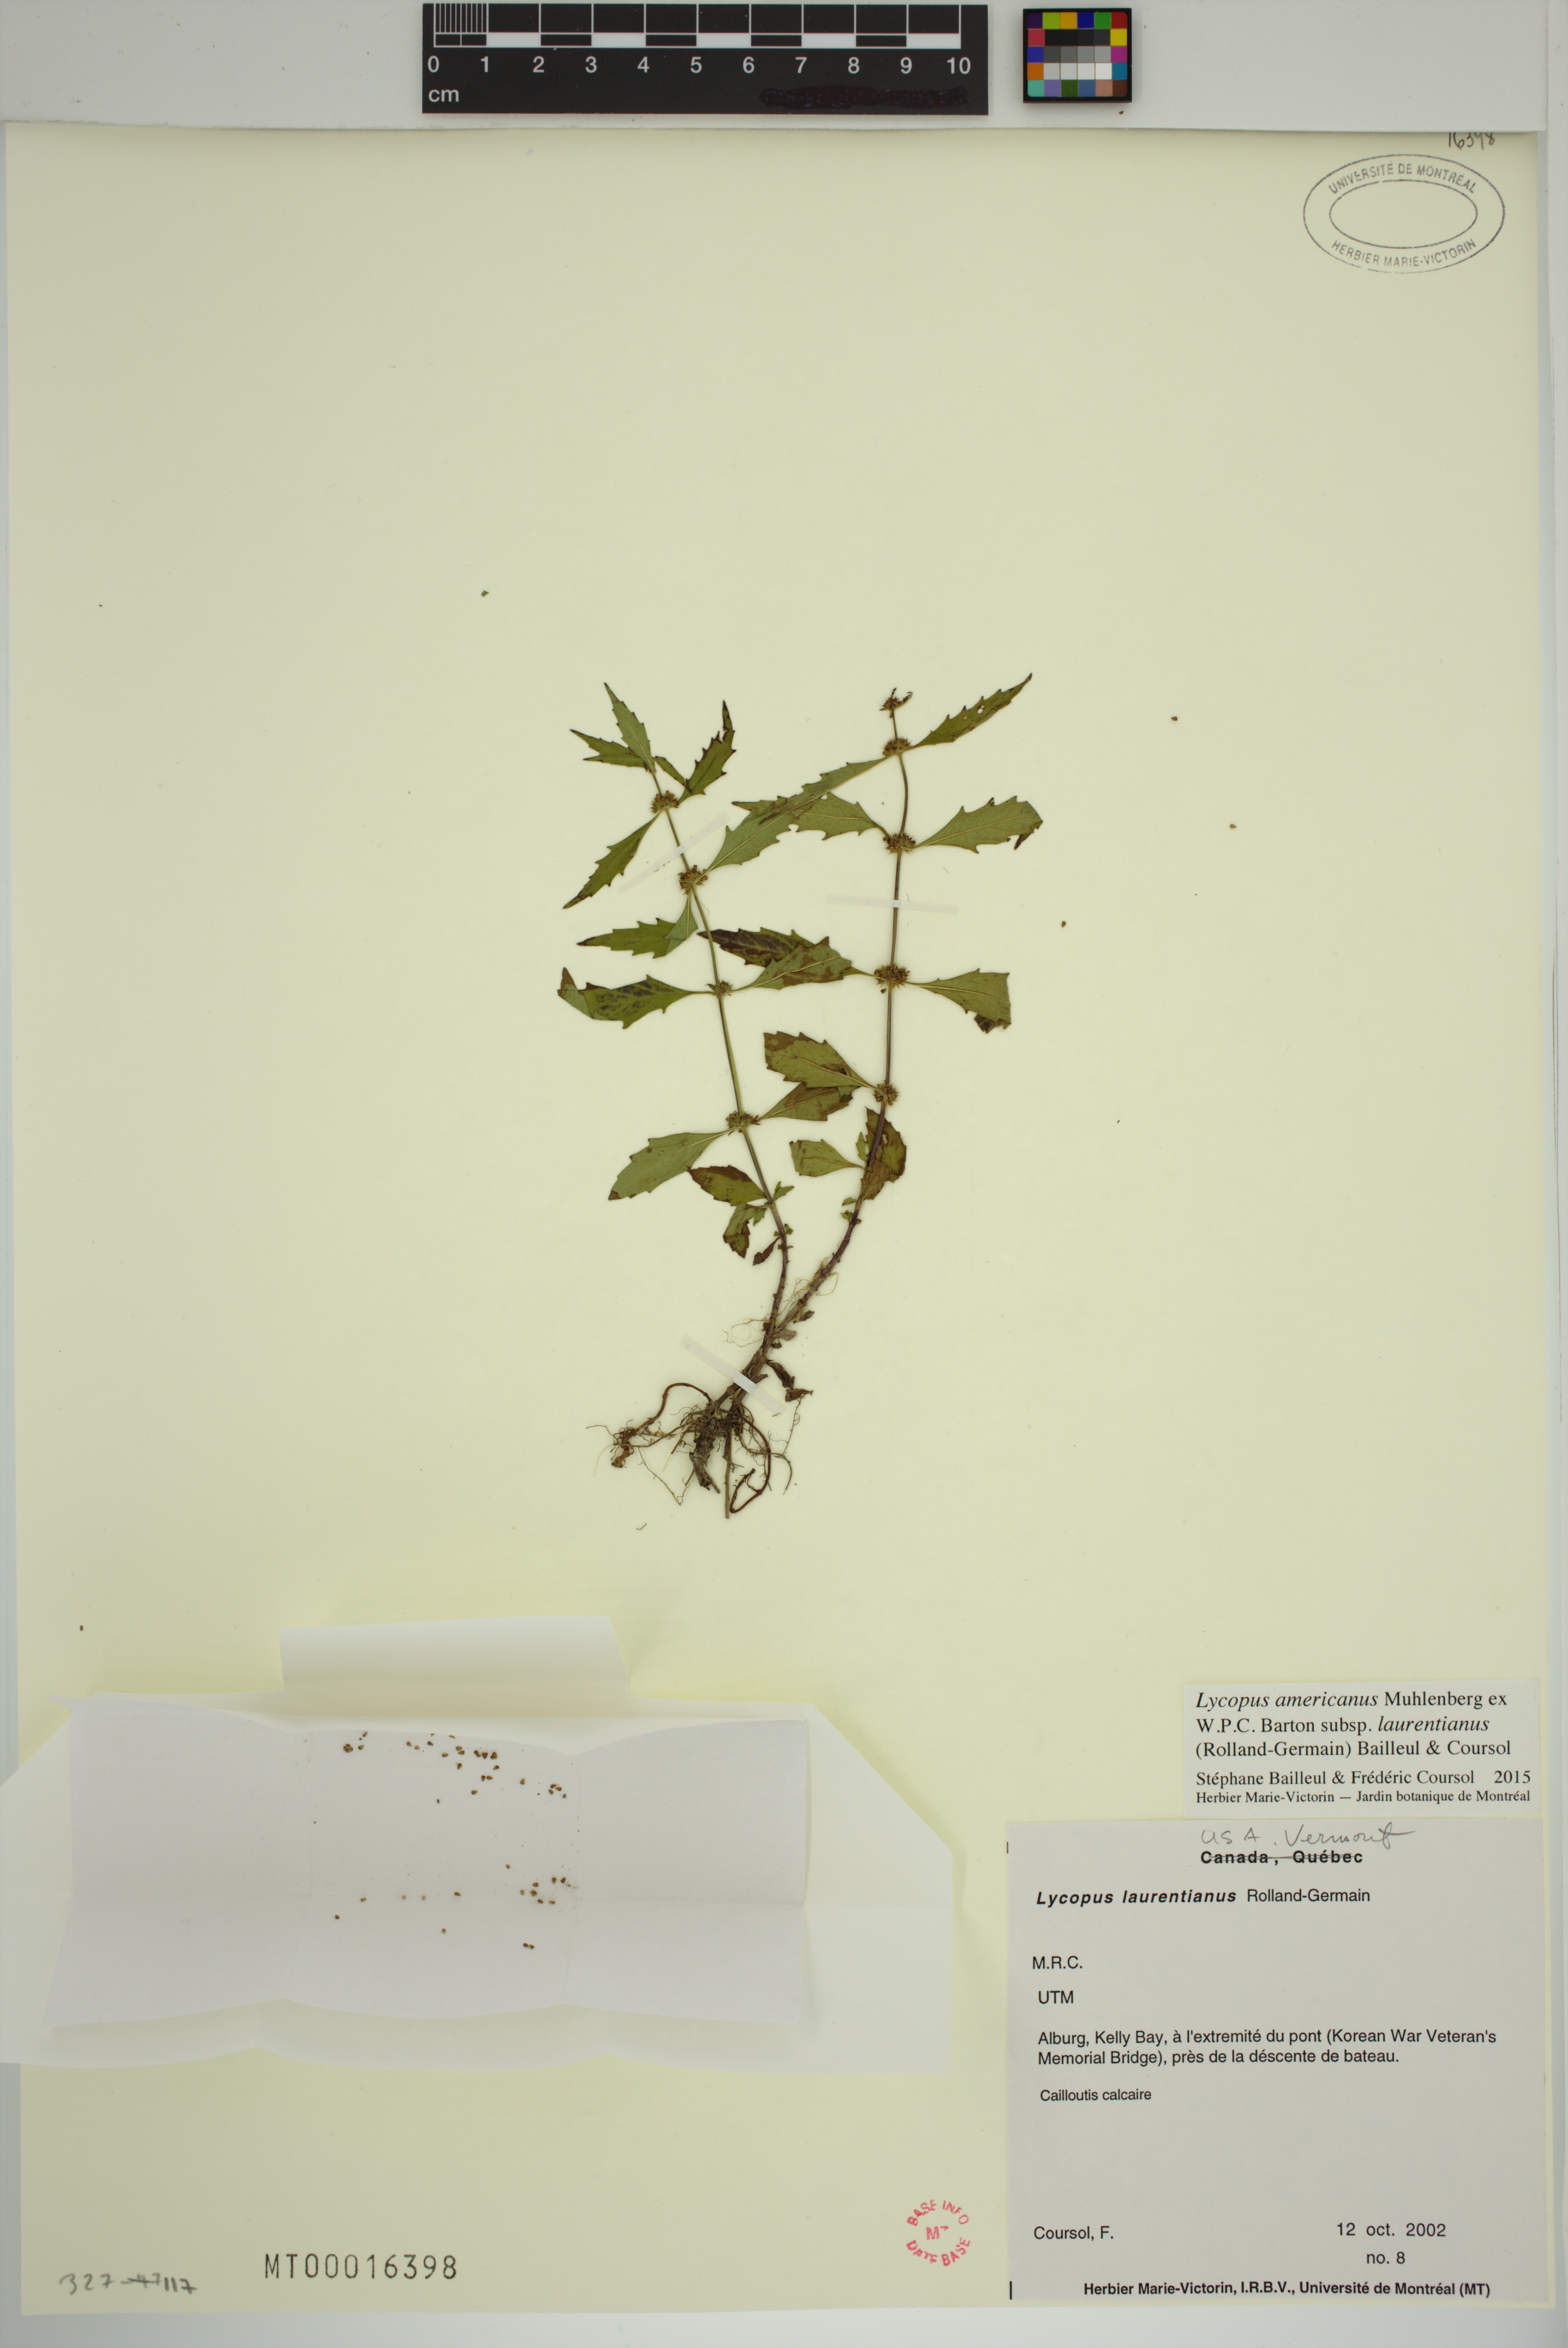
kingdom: Plantae
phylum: Tracheophyta
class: Magnoliopsida
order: Lamiales
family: Lamiaceae
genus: Lycopus
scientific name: Lycopus americanus
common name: American bugleweed
